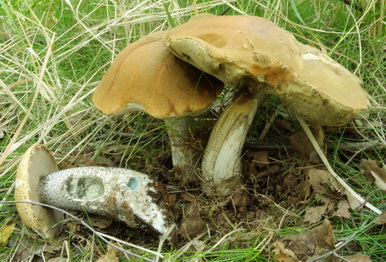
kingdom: Fungi
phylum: Basidiomycota
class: Agaricomycetes
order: Boletales
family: Boletaceae
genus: Leccinum
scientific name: Leccinum versipelle
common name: orange skælrørhat
